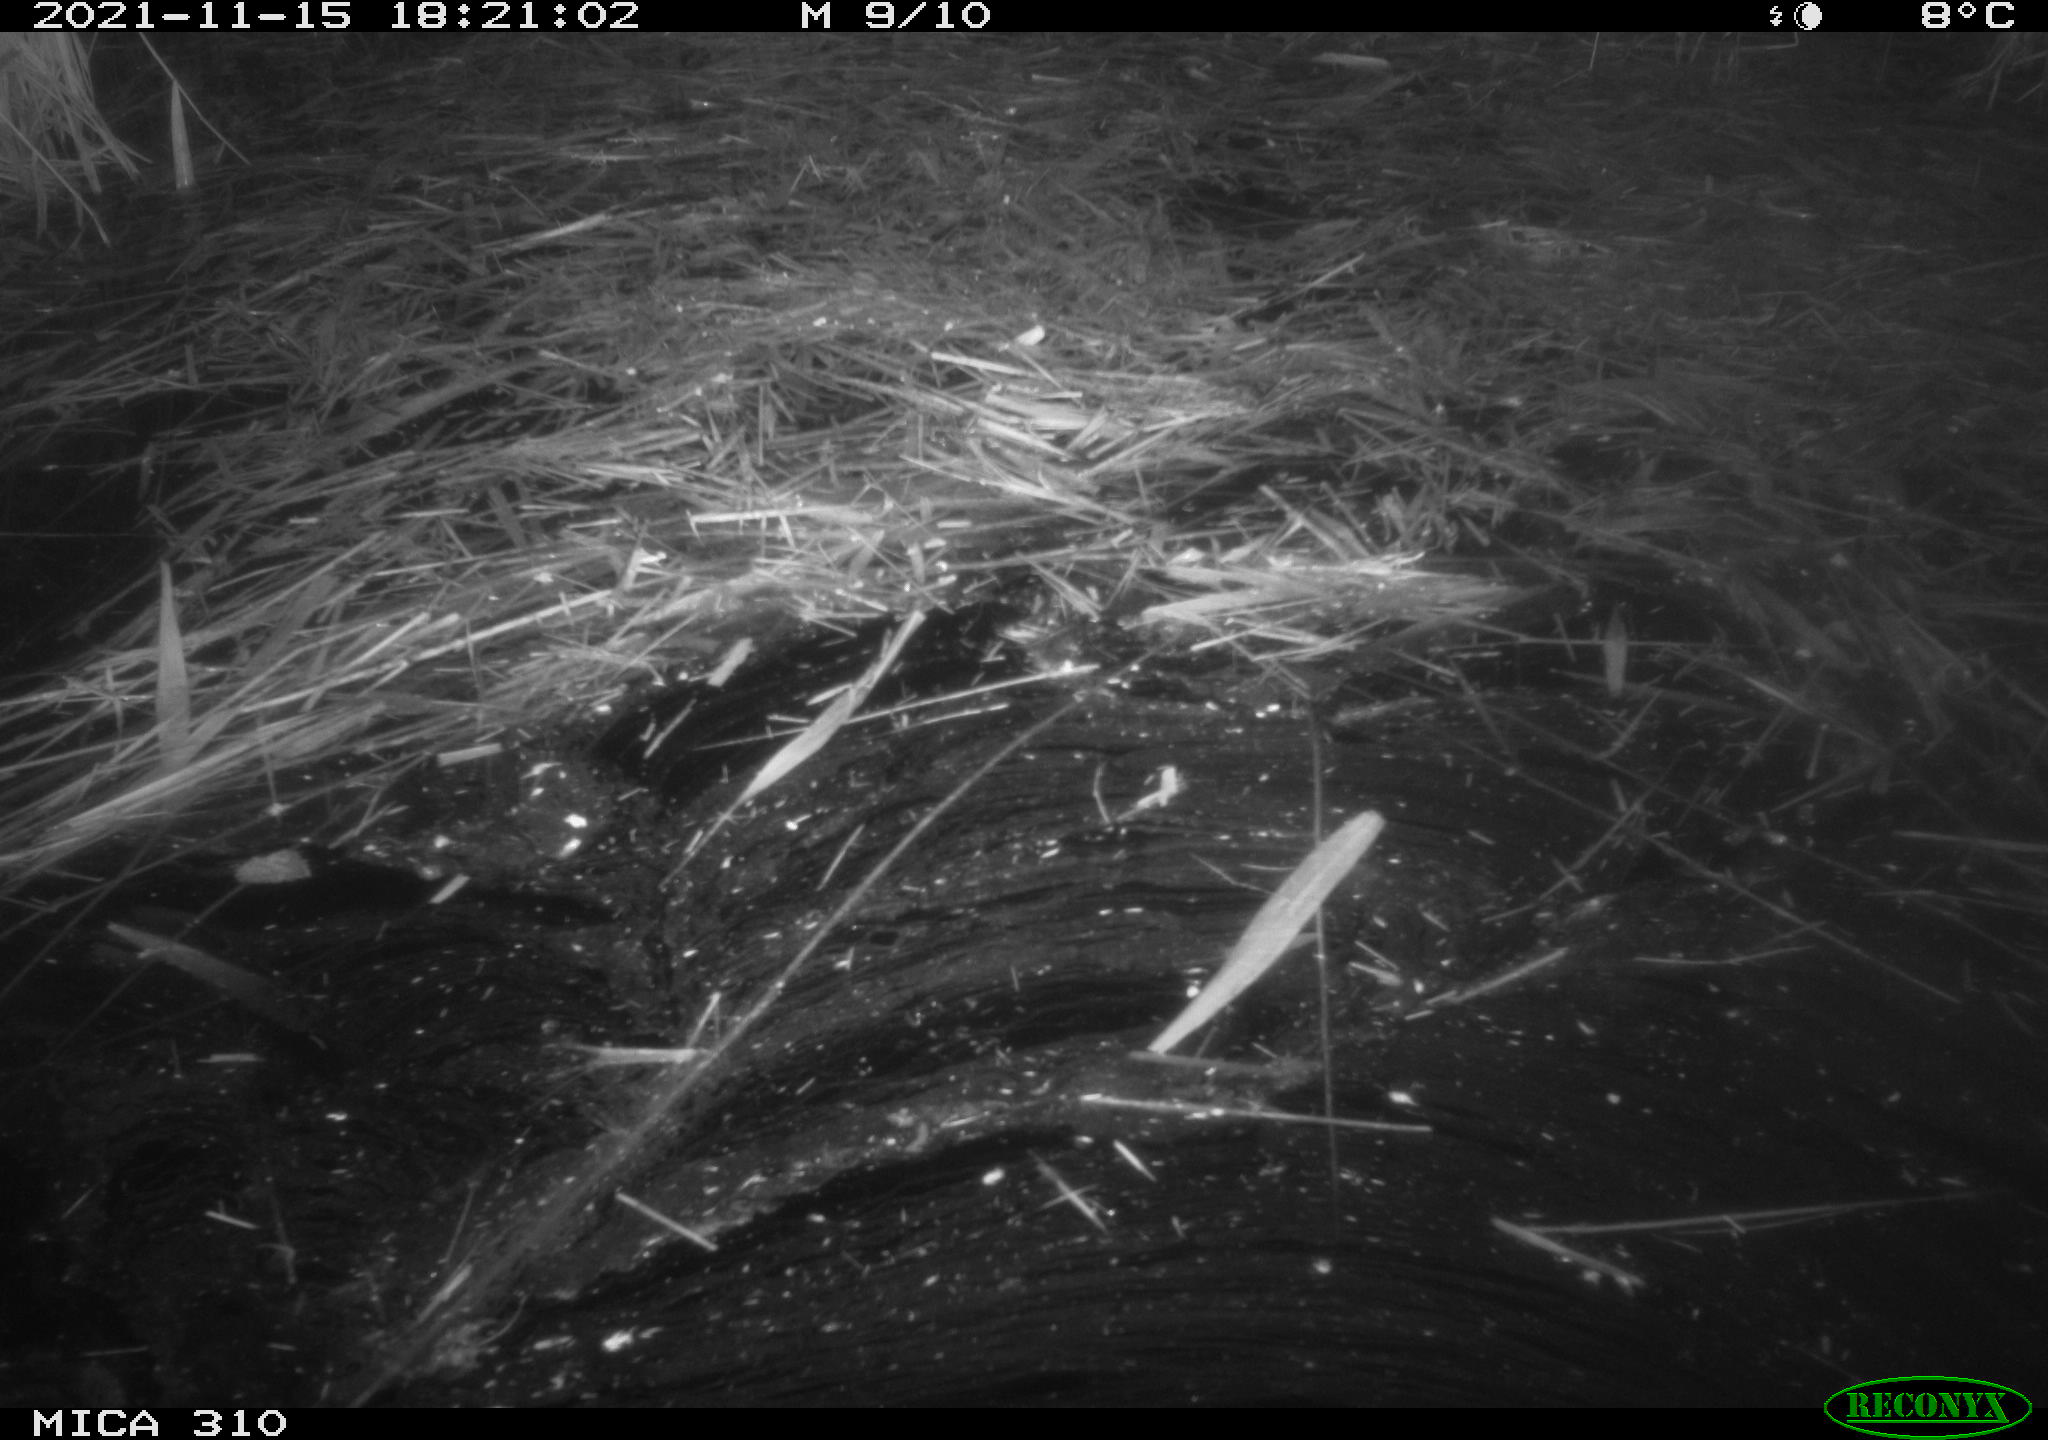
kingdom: Animalia
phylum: Chordata
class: Mammalia
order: Rodentia
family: Muridae
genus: Rattus
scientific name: Rattus norvegicus
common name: Brown rat
